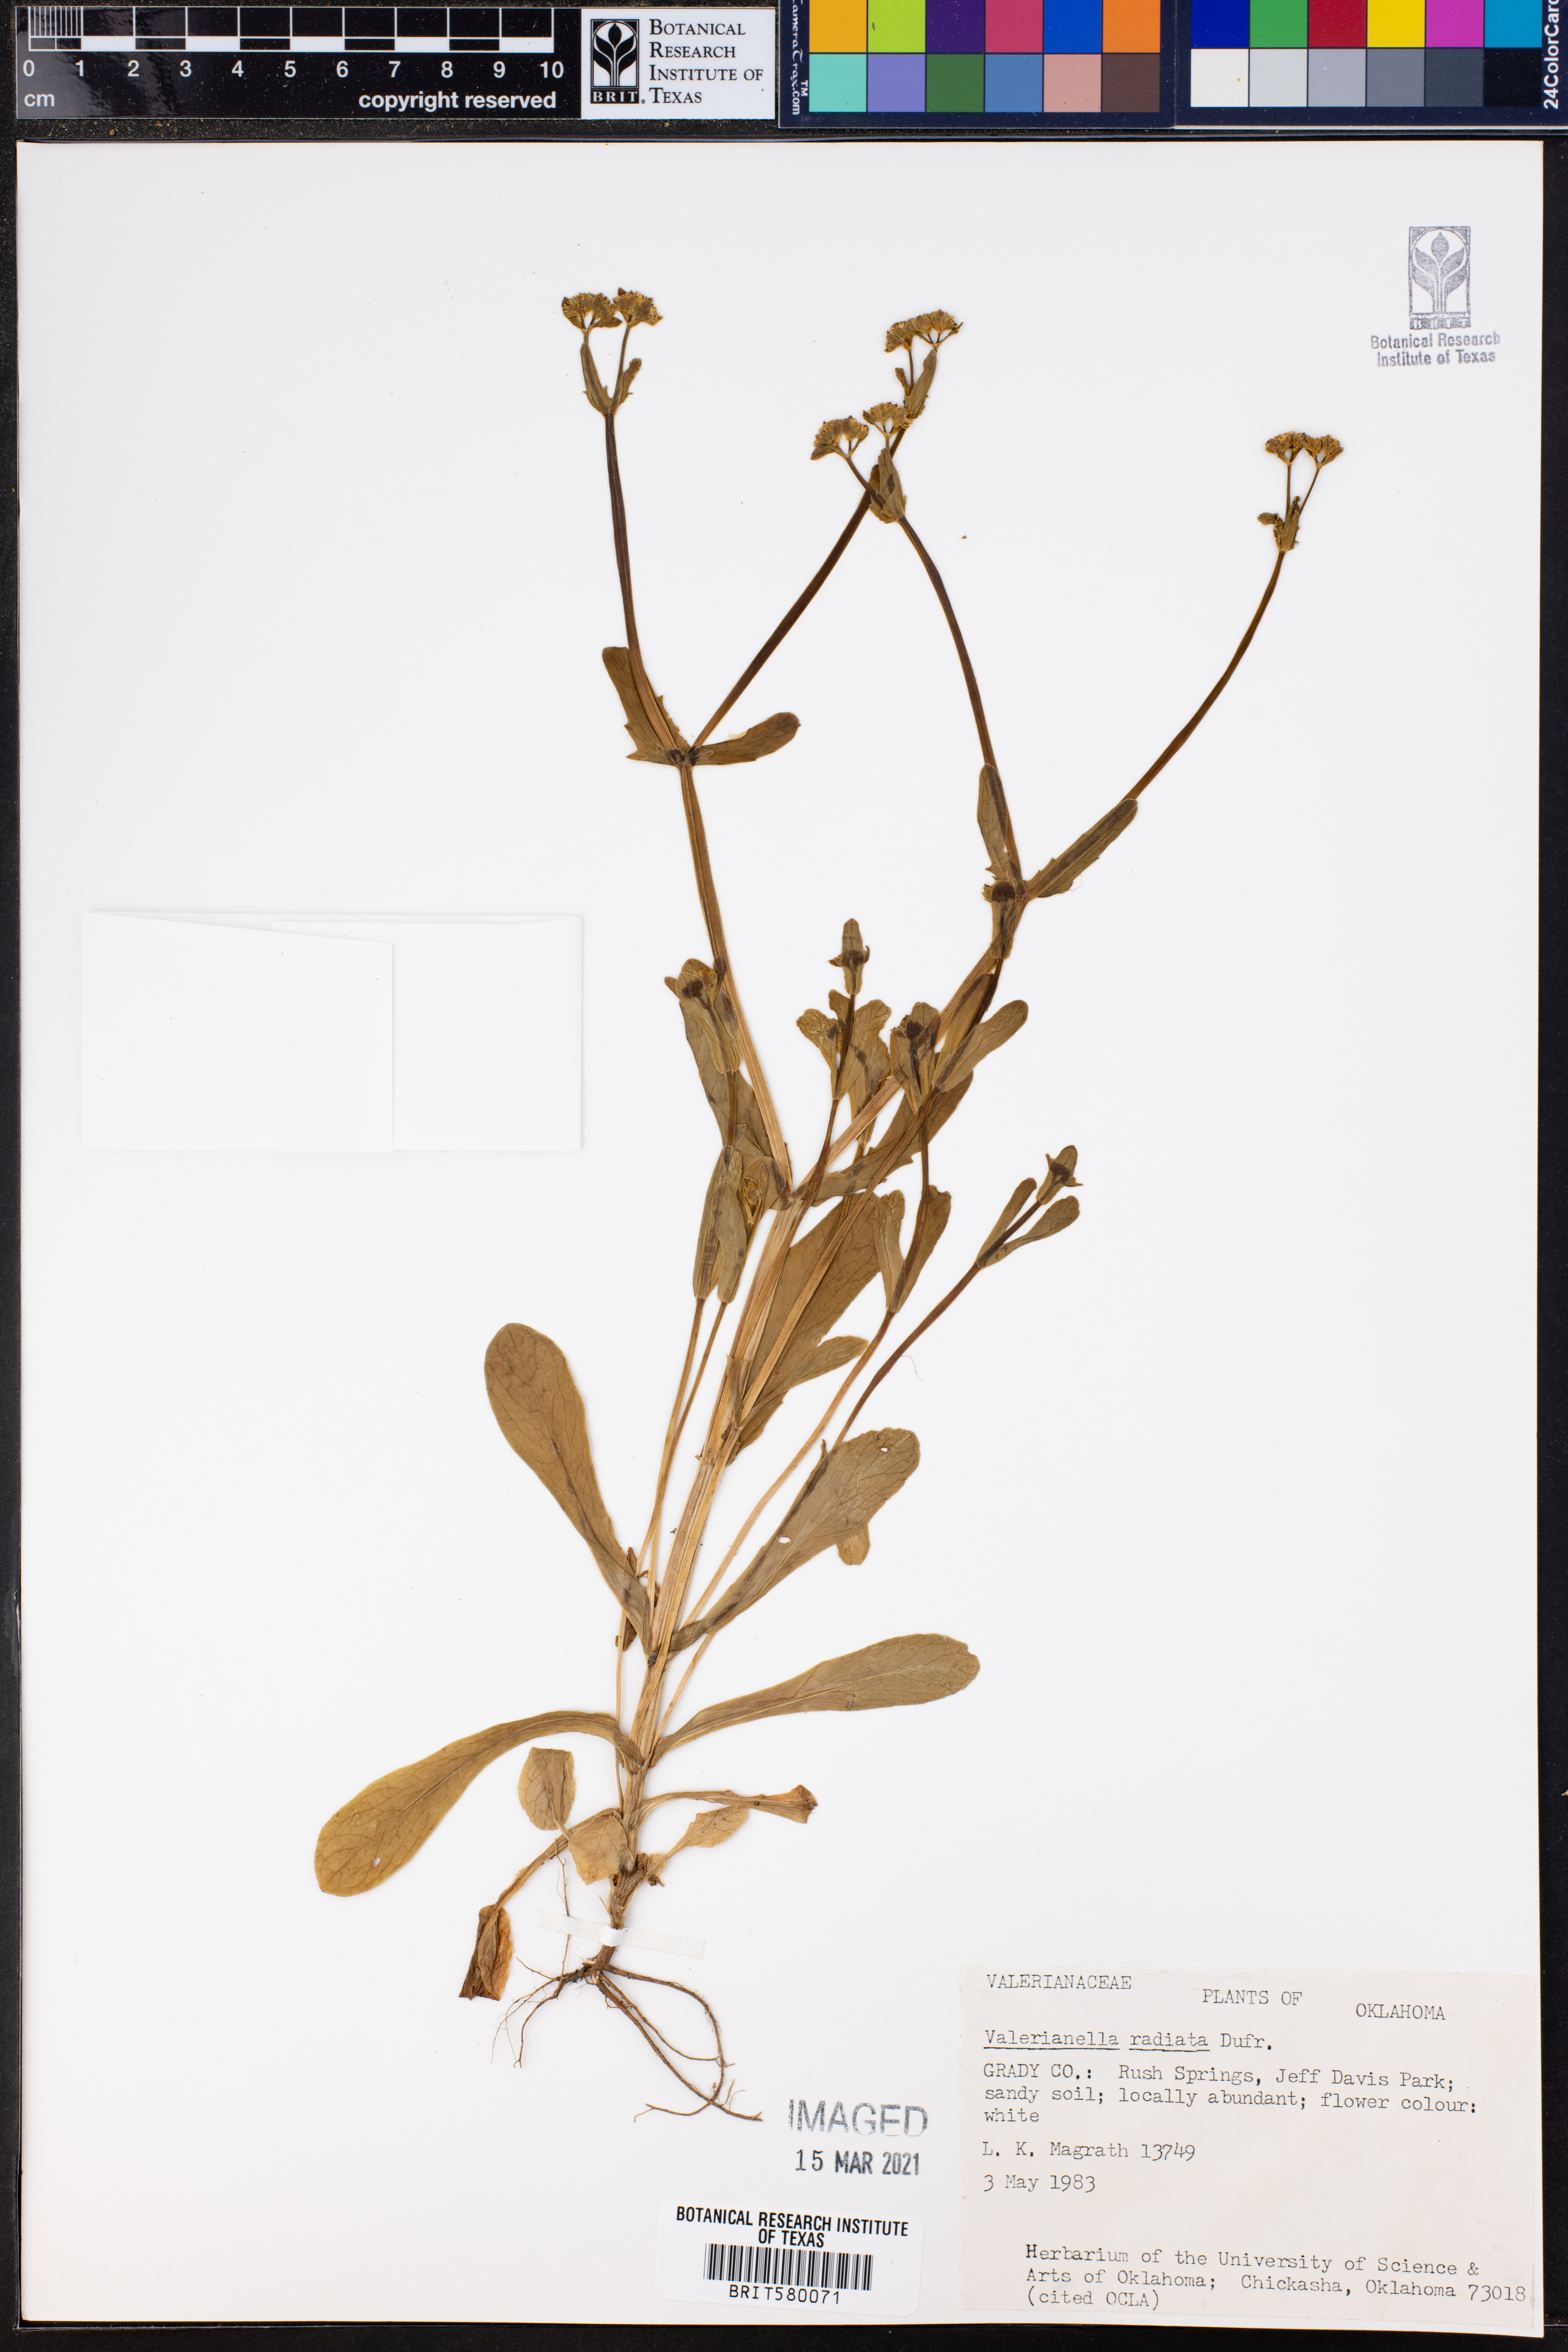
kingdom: Plantae
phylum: Tracheophyta
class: Magnoliopsida
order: Dipsacales
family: Caprifoliaceae
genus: Valerianella
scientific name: Valerianella radiata
